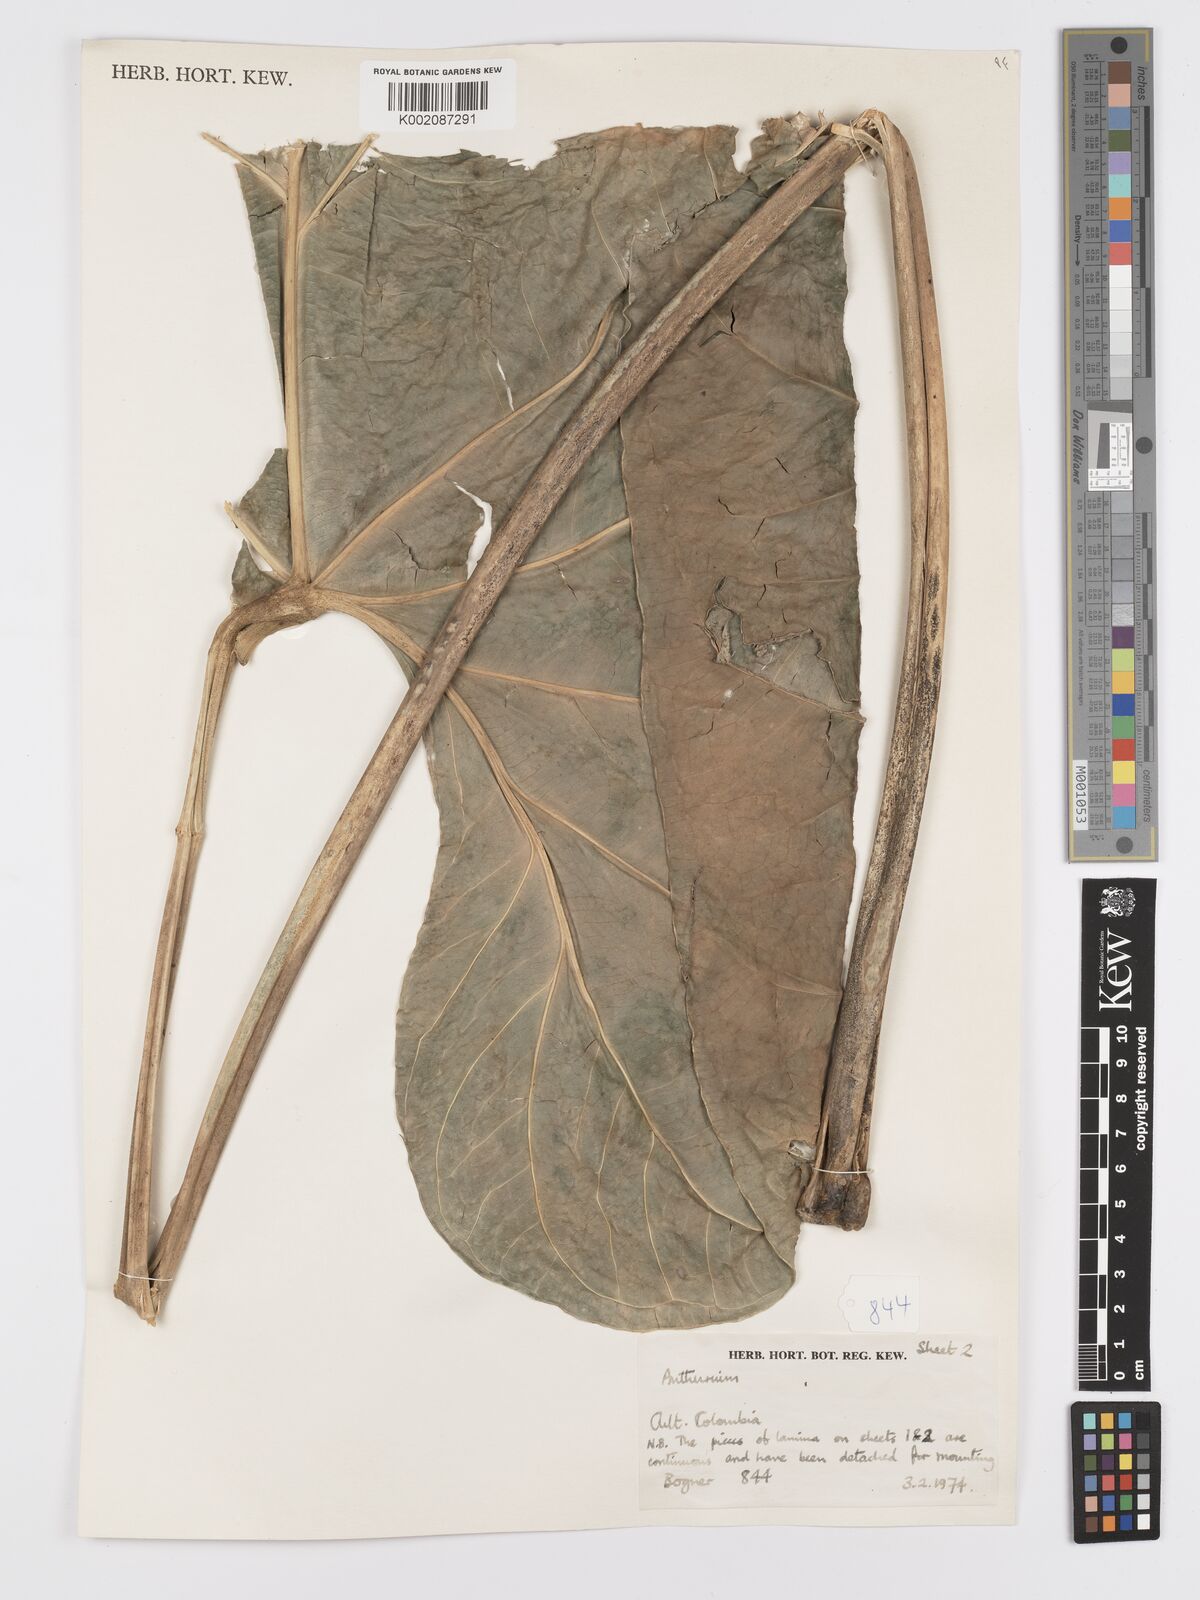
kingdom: Plantae
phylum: Tracheophyta
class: Liliopsida
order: Alismatales
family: Araceae
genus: Anthurium
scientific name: Anthurium
